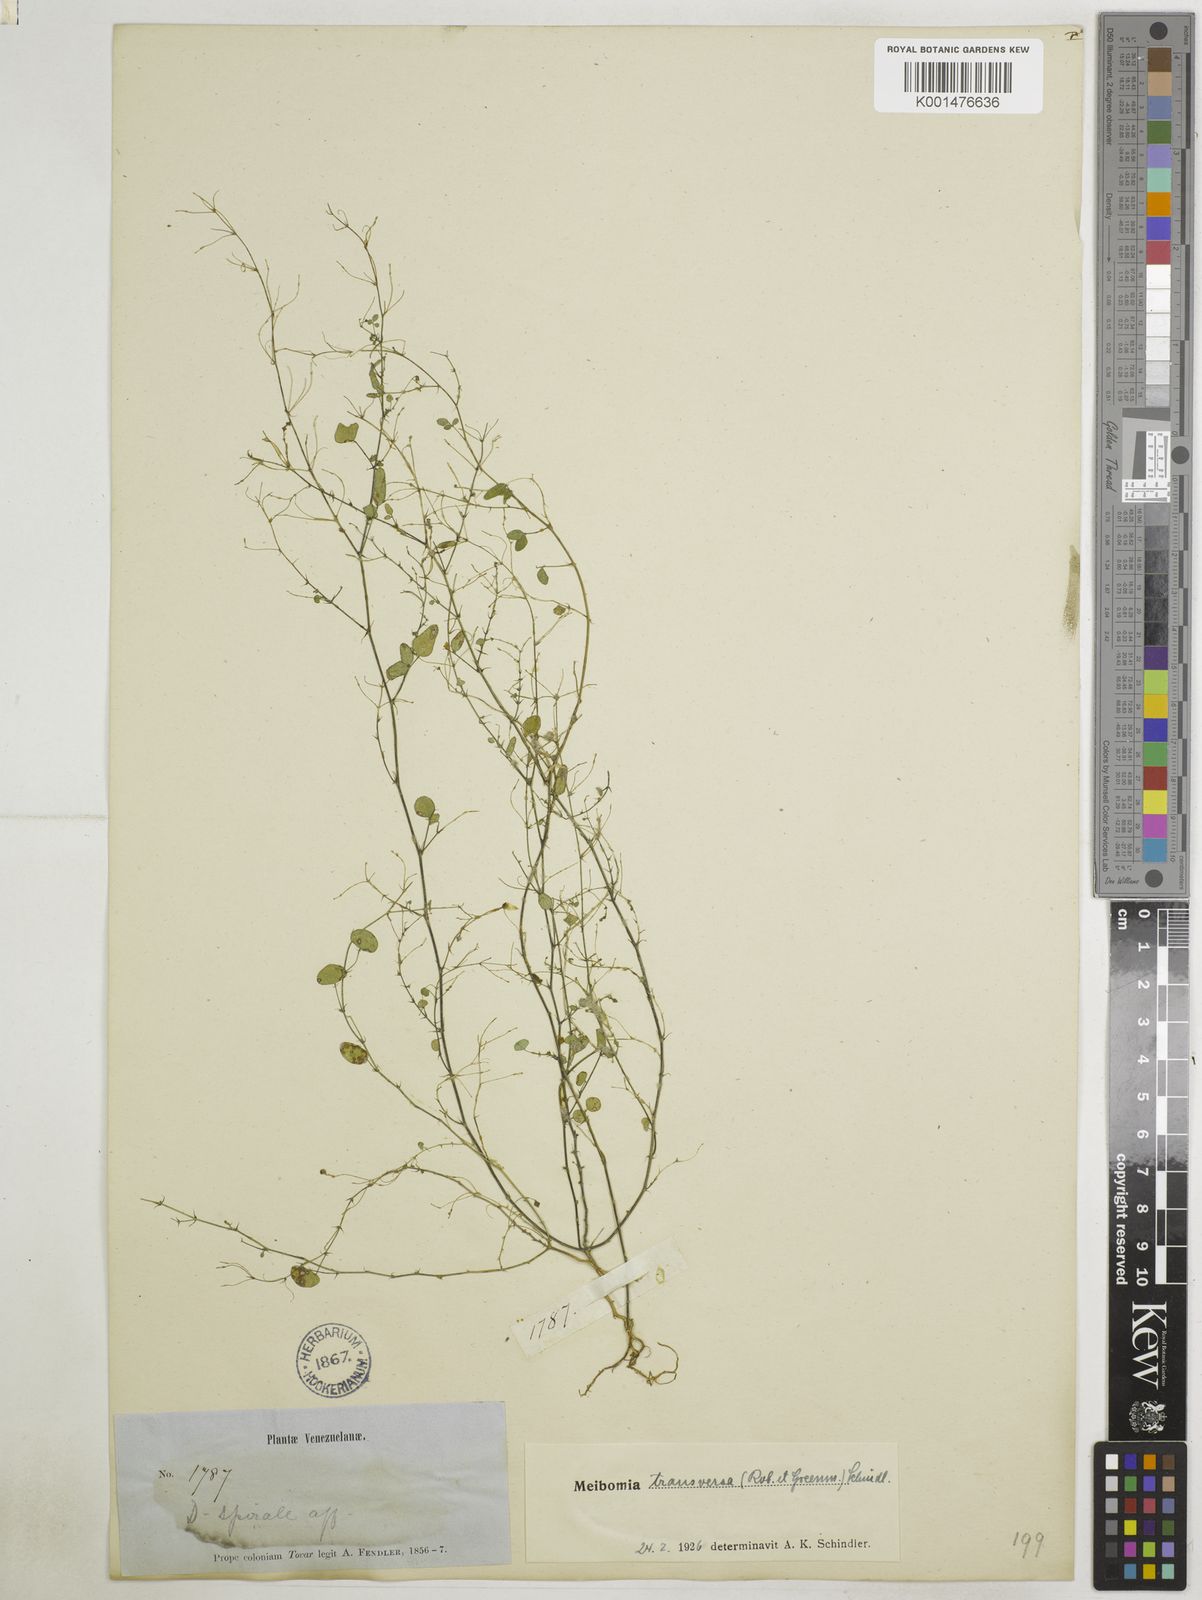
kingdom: Plantae
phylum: Tracheophyta
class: Magnoliopsida
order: Fabales
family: Fabaceae
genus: Desmodium
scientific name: Desmodium procumbens
